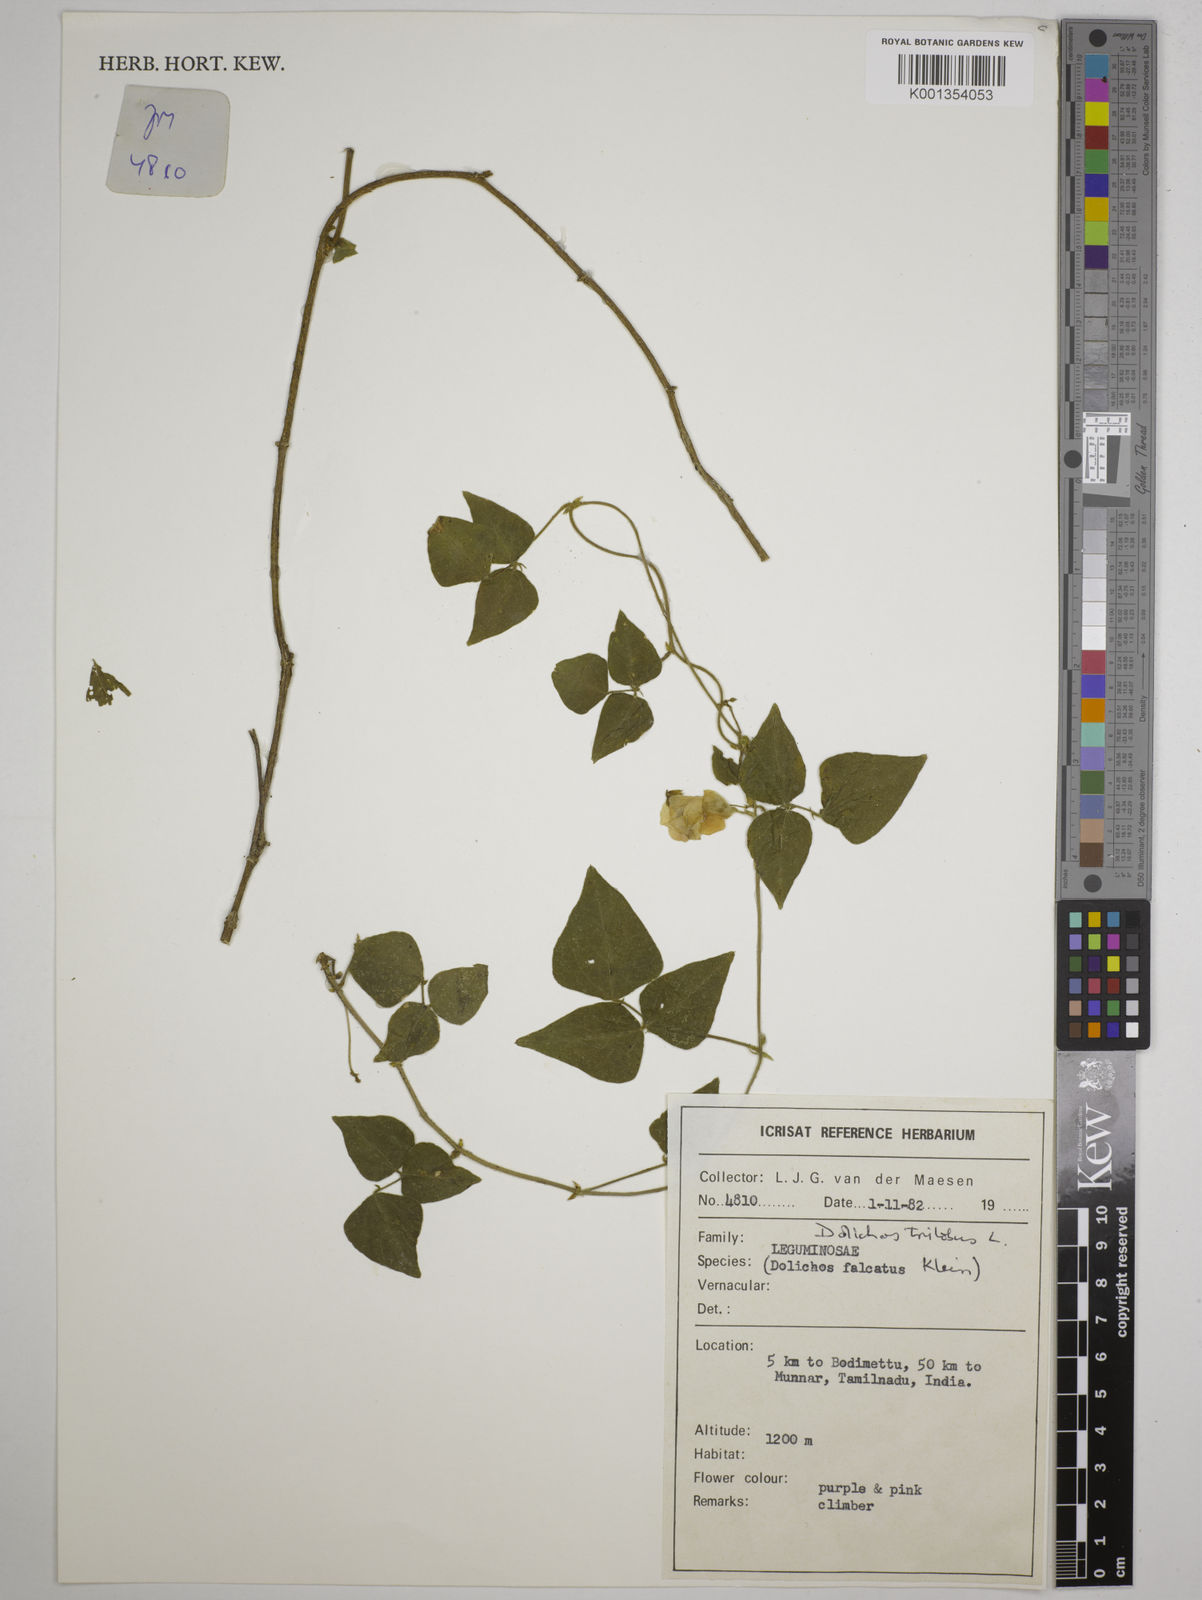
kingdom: Plantae
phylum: Tracheophyta
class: Magnoliopsida
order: Fabales
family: Fabaceae
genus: Dolichos
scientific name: Dolichos
